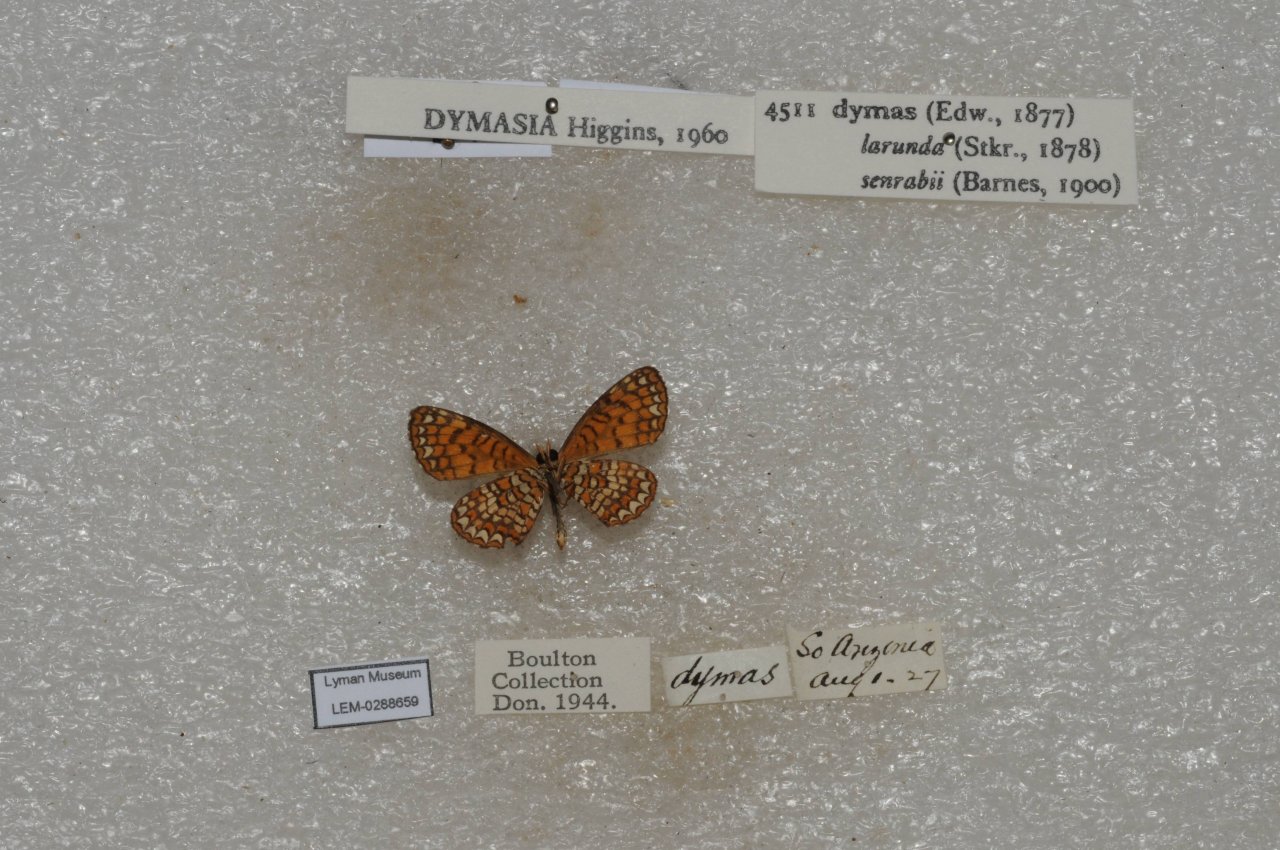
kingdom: Animalia
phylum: Arthropoda
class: Insecta
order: Lepidoptera
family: Nymphalidae
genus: Dymasia
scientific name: Dymasia dymas
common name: Tiny Checkerspot
